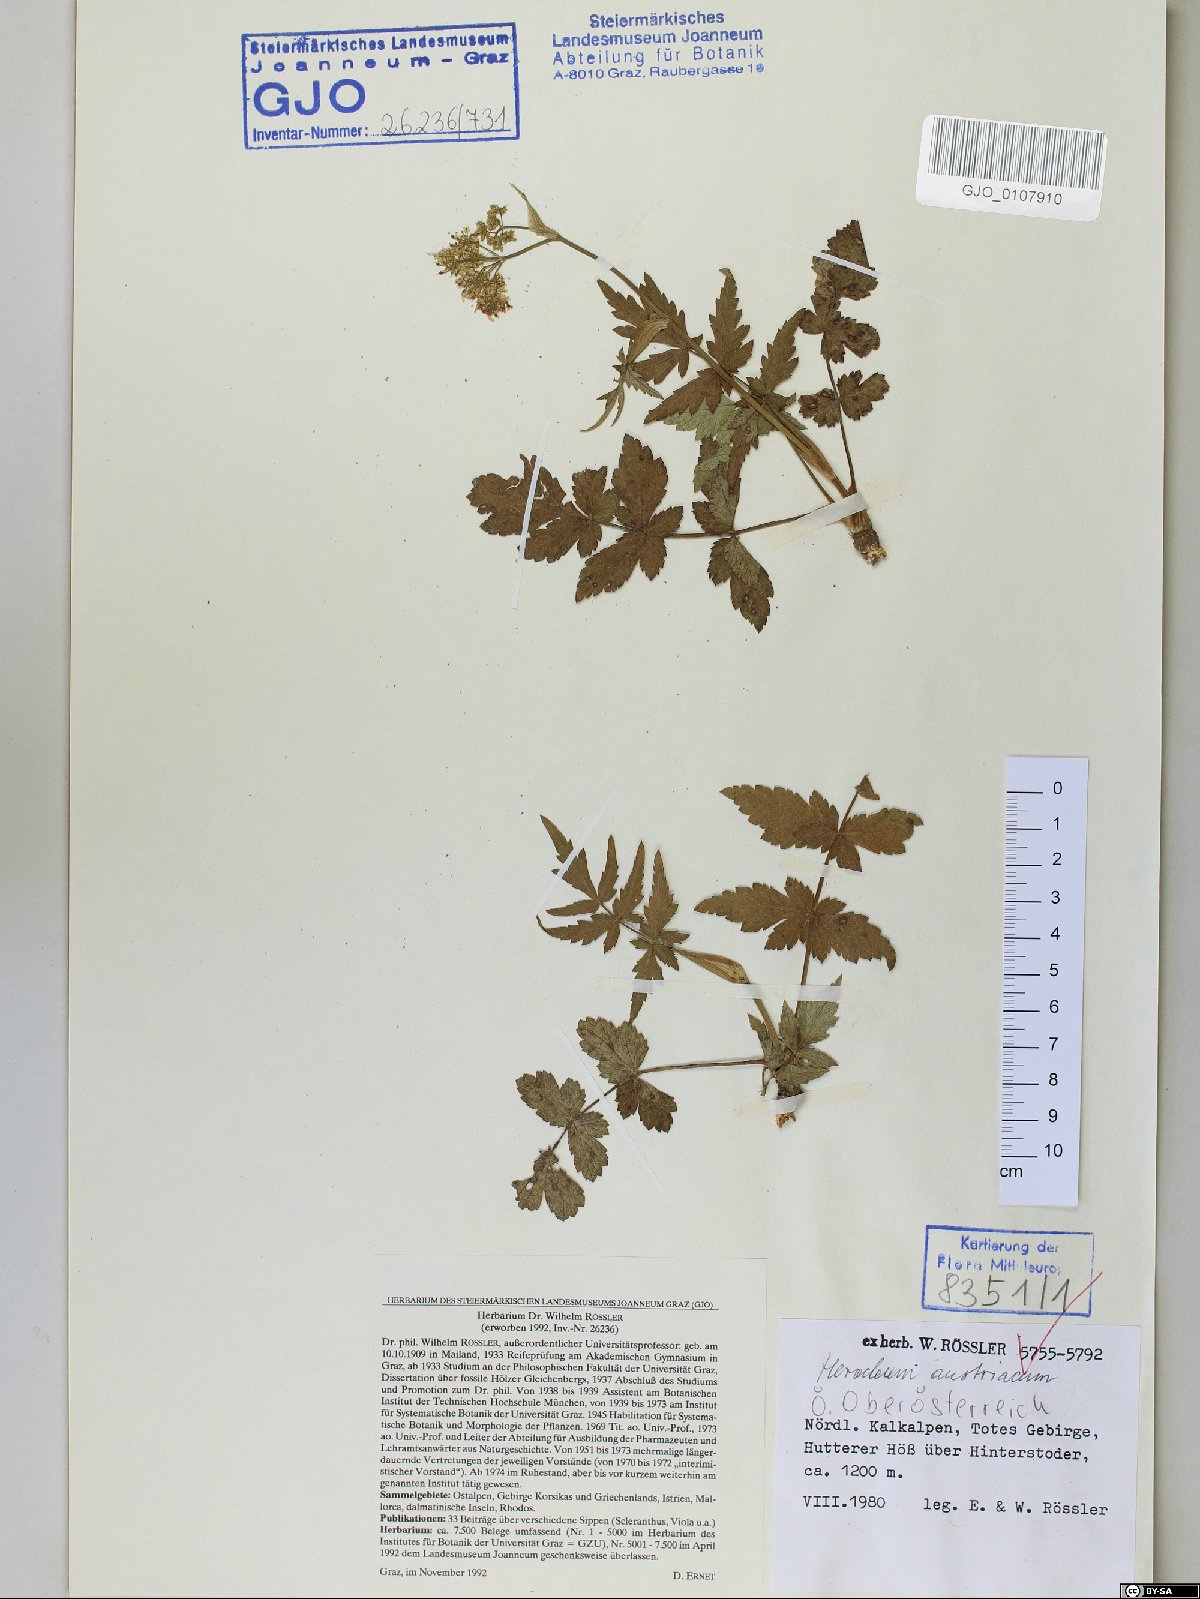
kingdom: Plantae
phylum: Tracheophyta
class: Magnoliopsida
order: Apiales
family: Apiaceae
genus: Heracleum
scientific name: Heracleum austriacum
